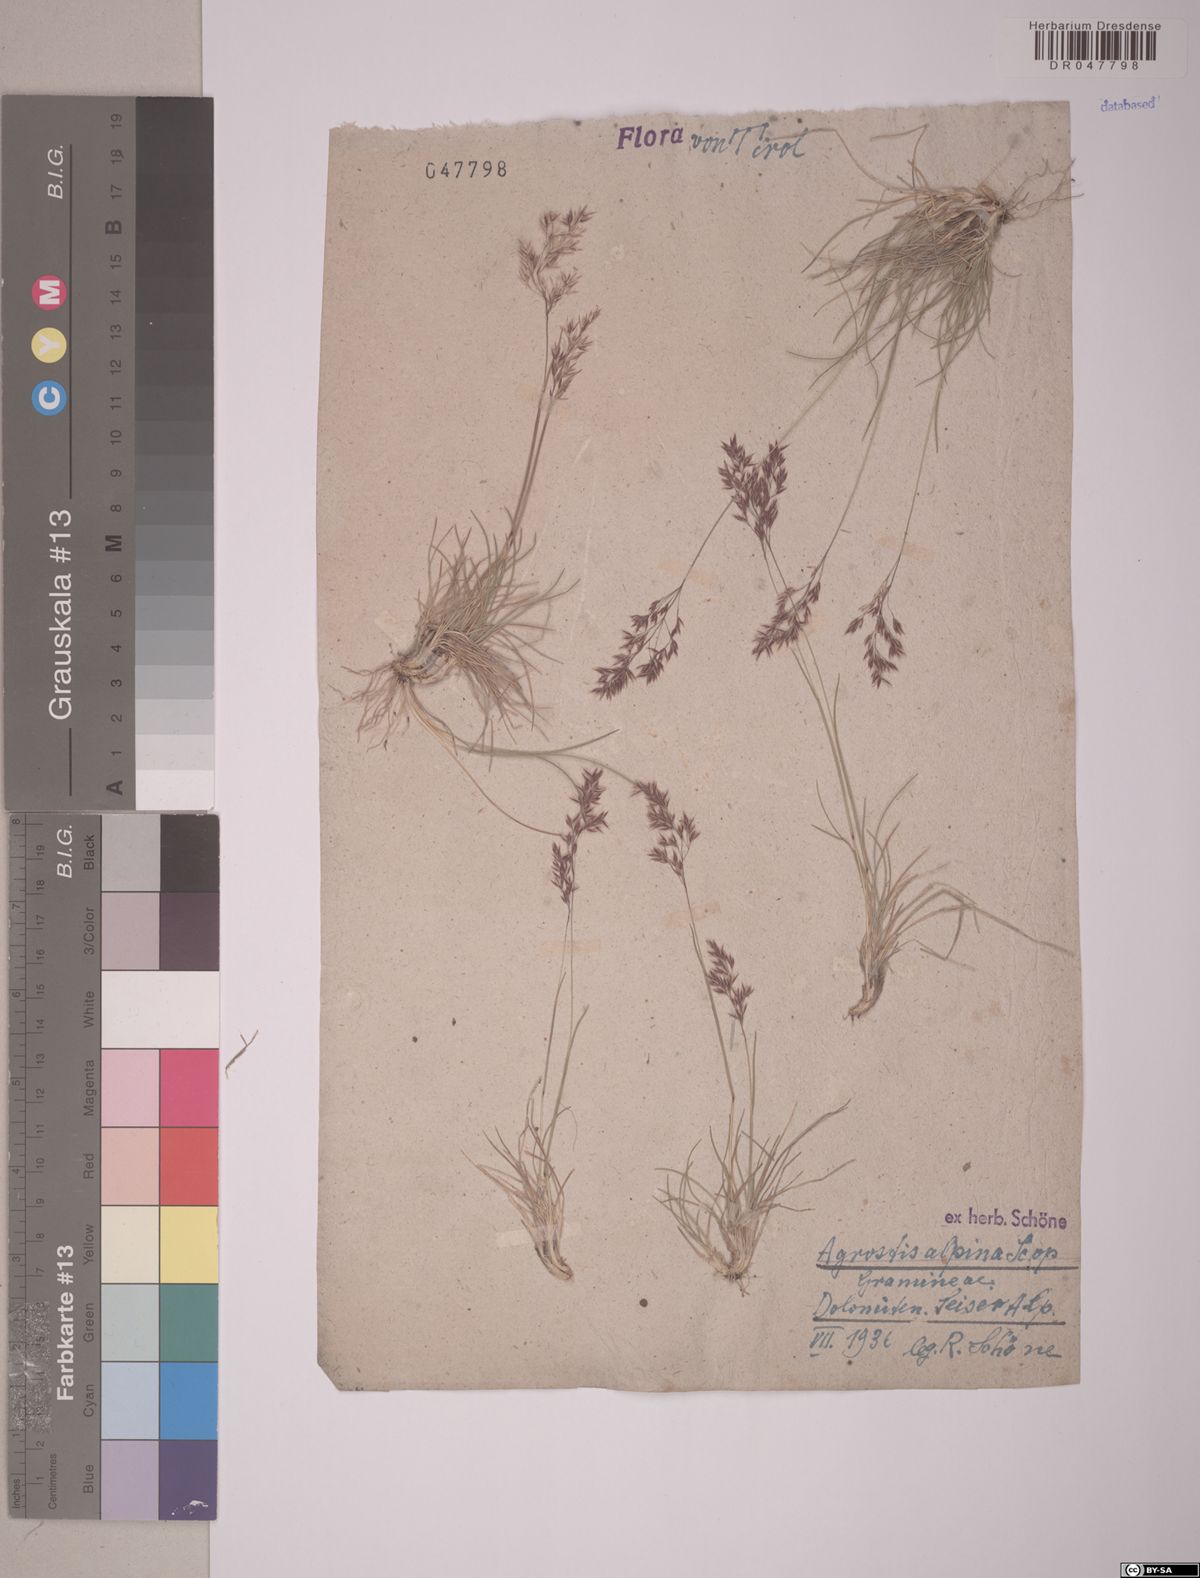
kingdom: Plantae
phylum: Tracheophyta
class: Liliopsida
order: Poales
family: Poaceae
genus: Alpagrostis
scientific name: Alpagrostis alpina
